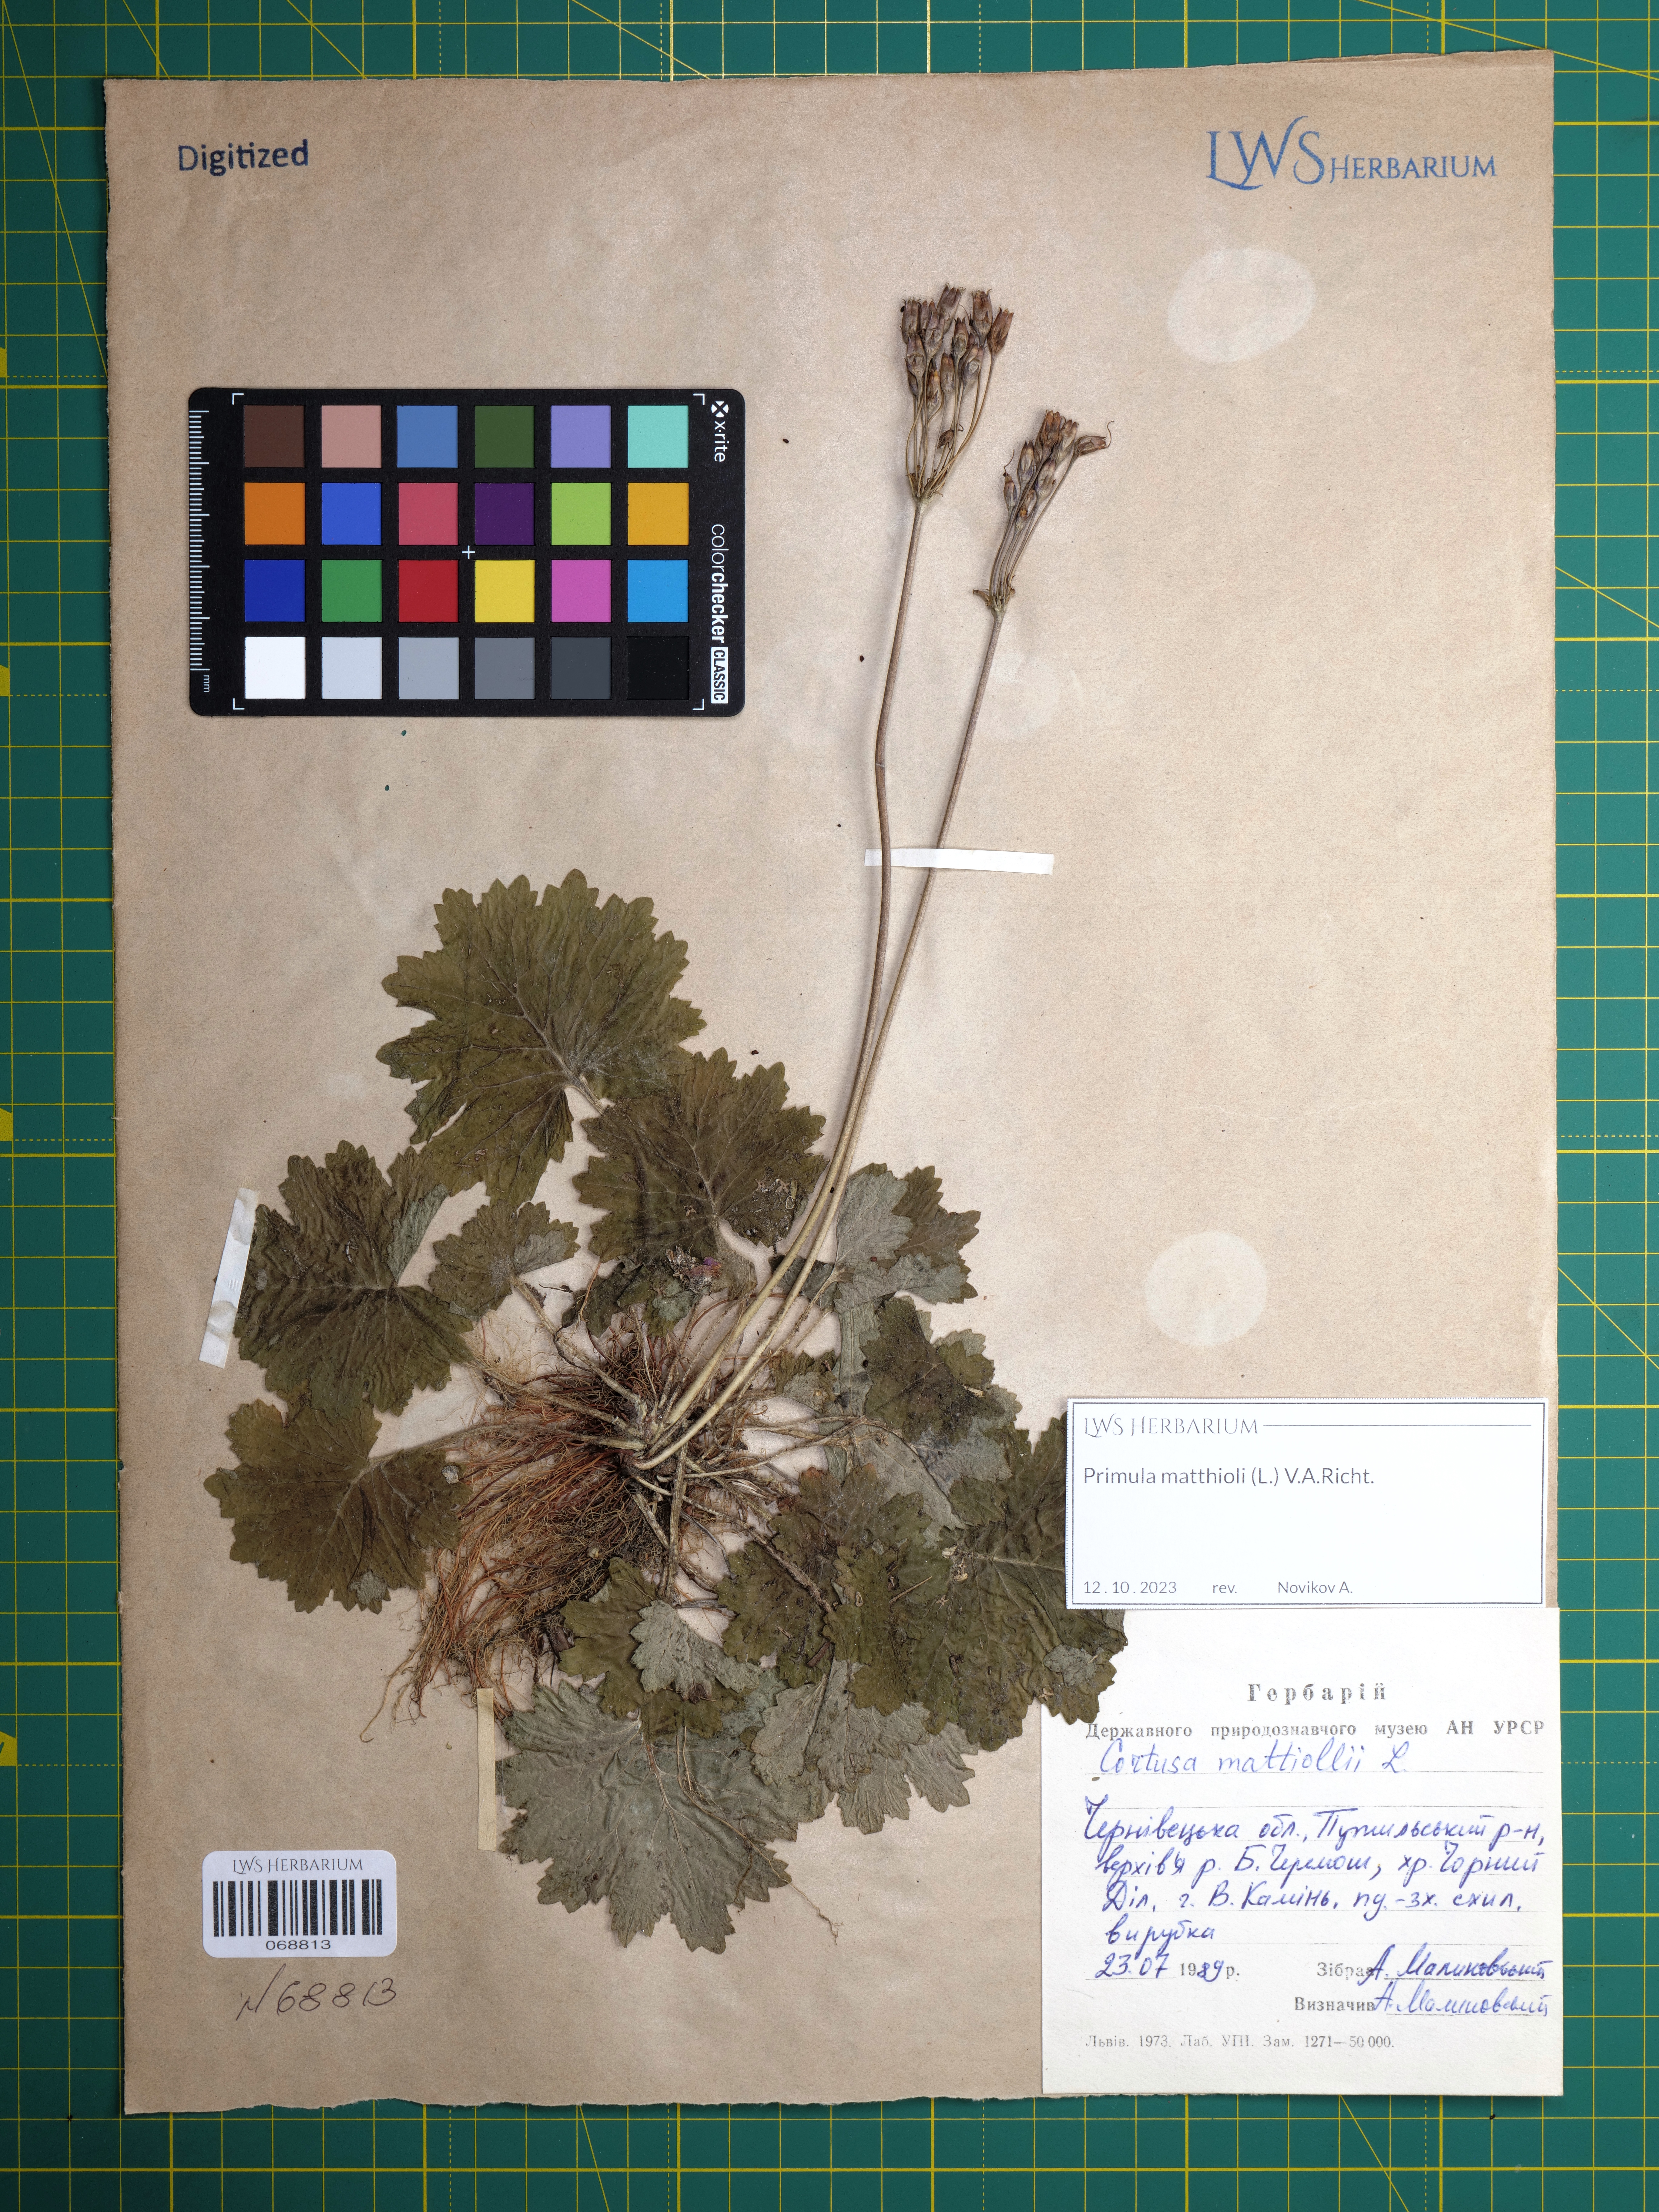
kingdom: Plantae
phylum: Tracheophyta
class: Magnoliopsida
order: Ericales
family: Primulaceae
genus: Primula
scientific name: Primula matthioli
